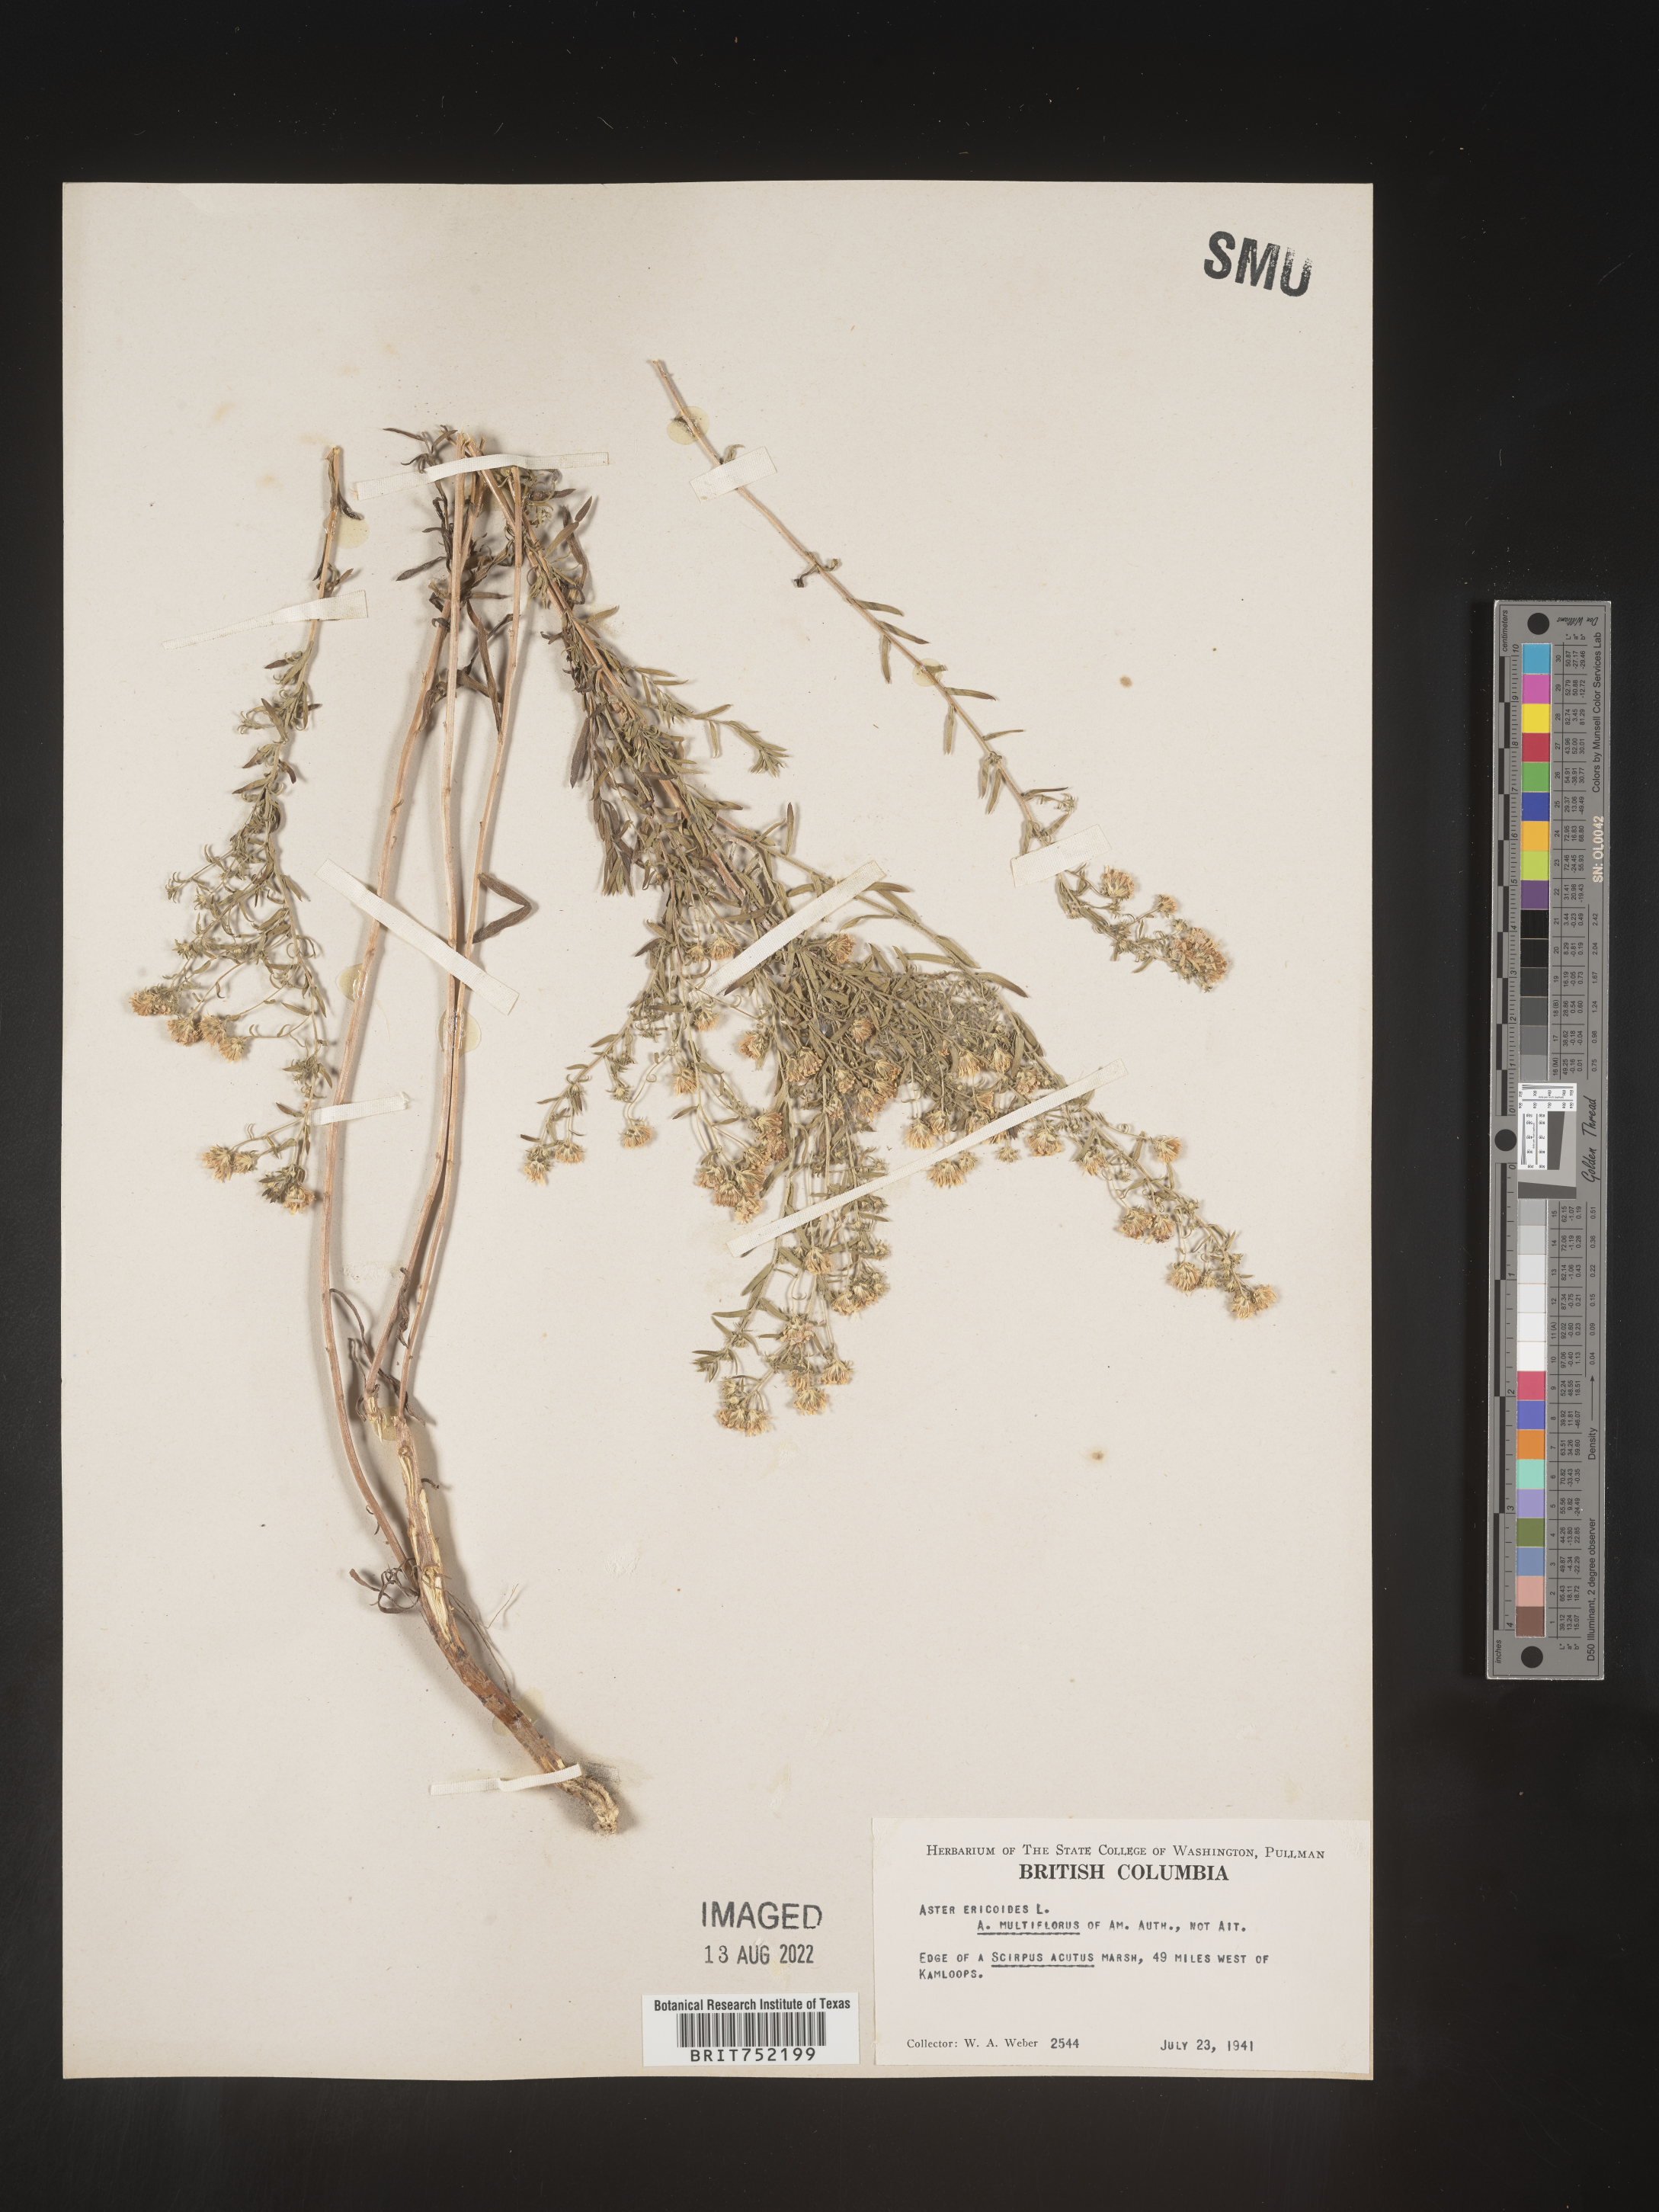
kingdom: Plantae
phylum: Tracheophyta
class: Magnoliopsida
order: Asterales
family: Asteraceae
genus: Symphyotrichum
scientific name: Symphyotrichum ericoides
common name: Heath aster
